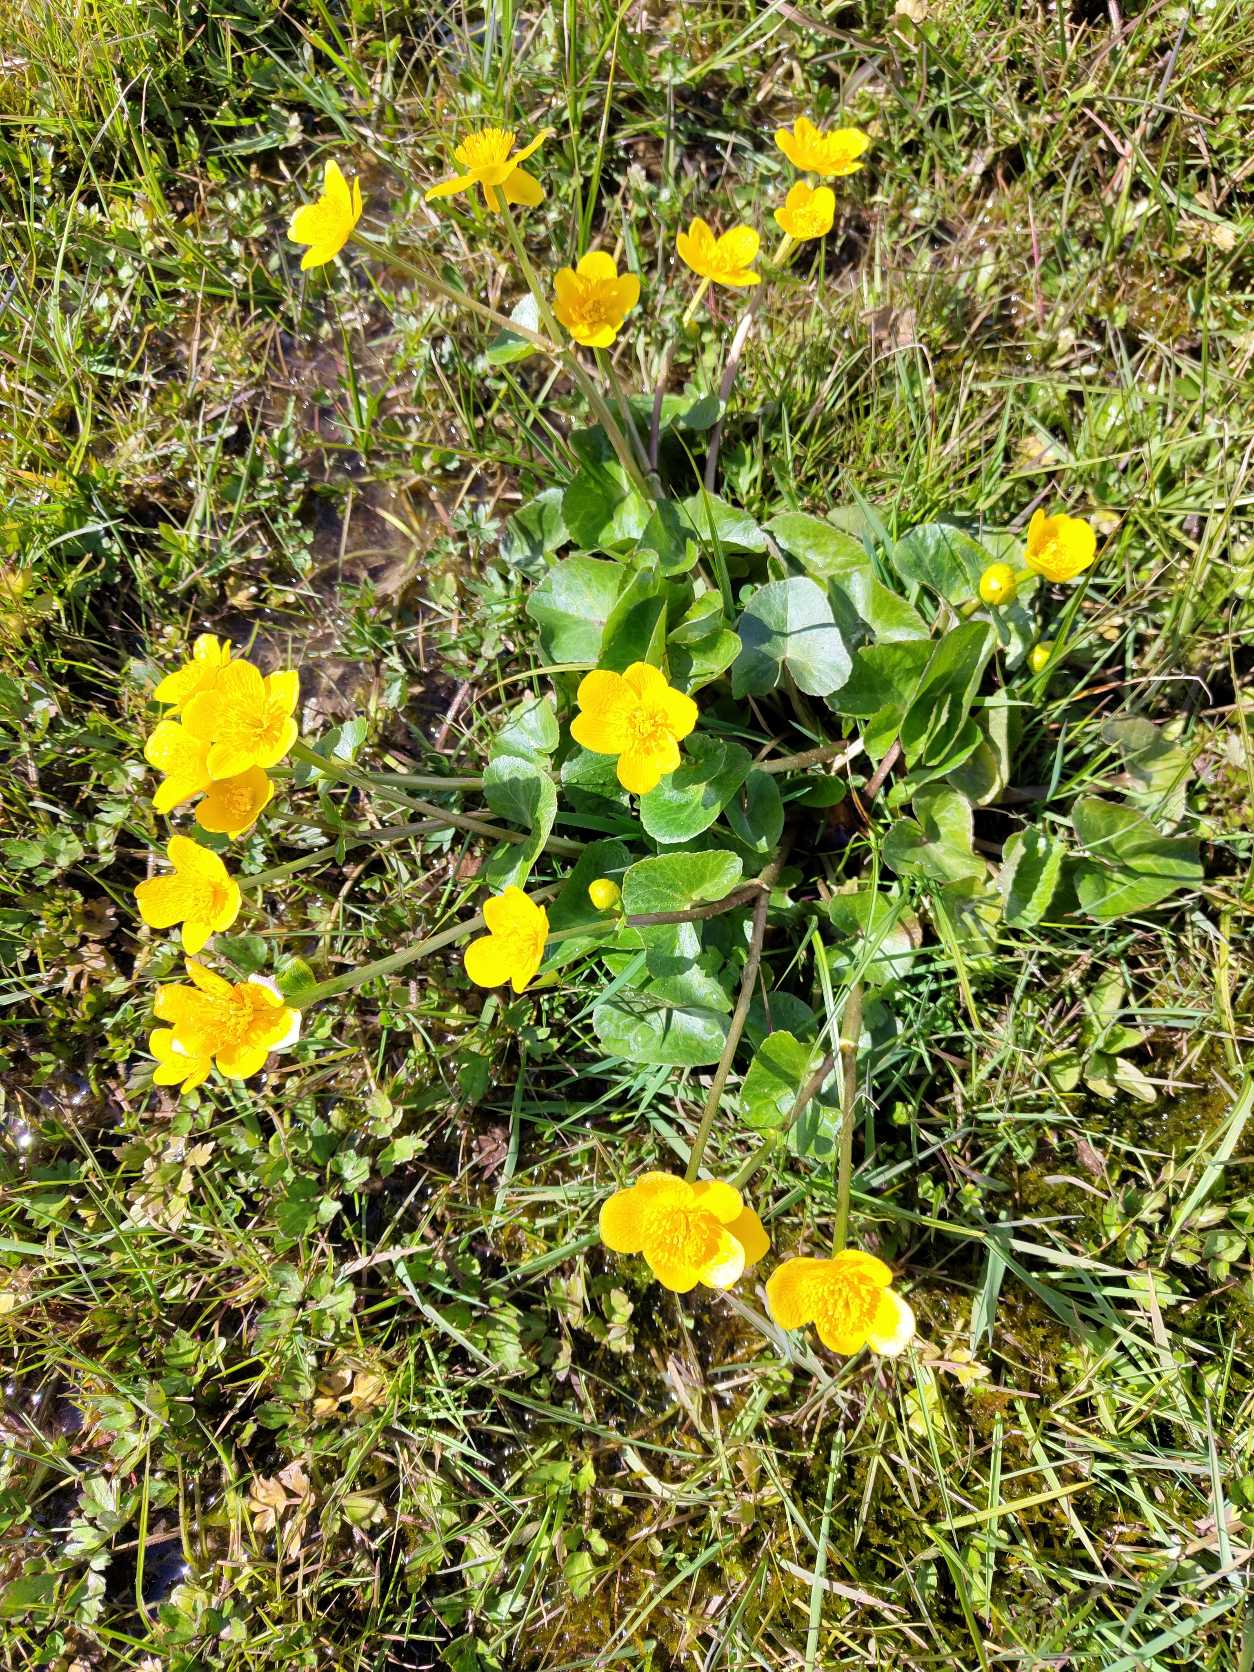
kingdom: Plantae
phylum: Tracheophyta
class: Magnoliopsida
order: Ranunculales
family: Ranunculaceae
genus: Caltha
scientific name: Caltha palustris
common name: Eng-kabbeleje
